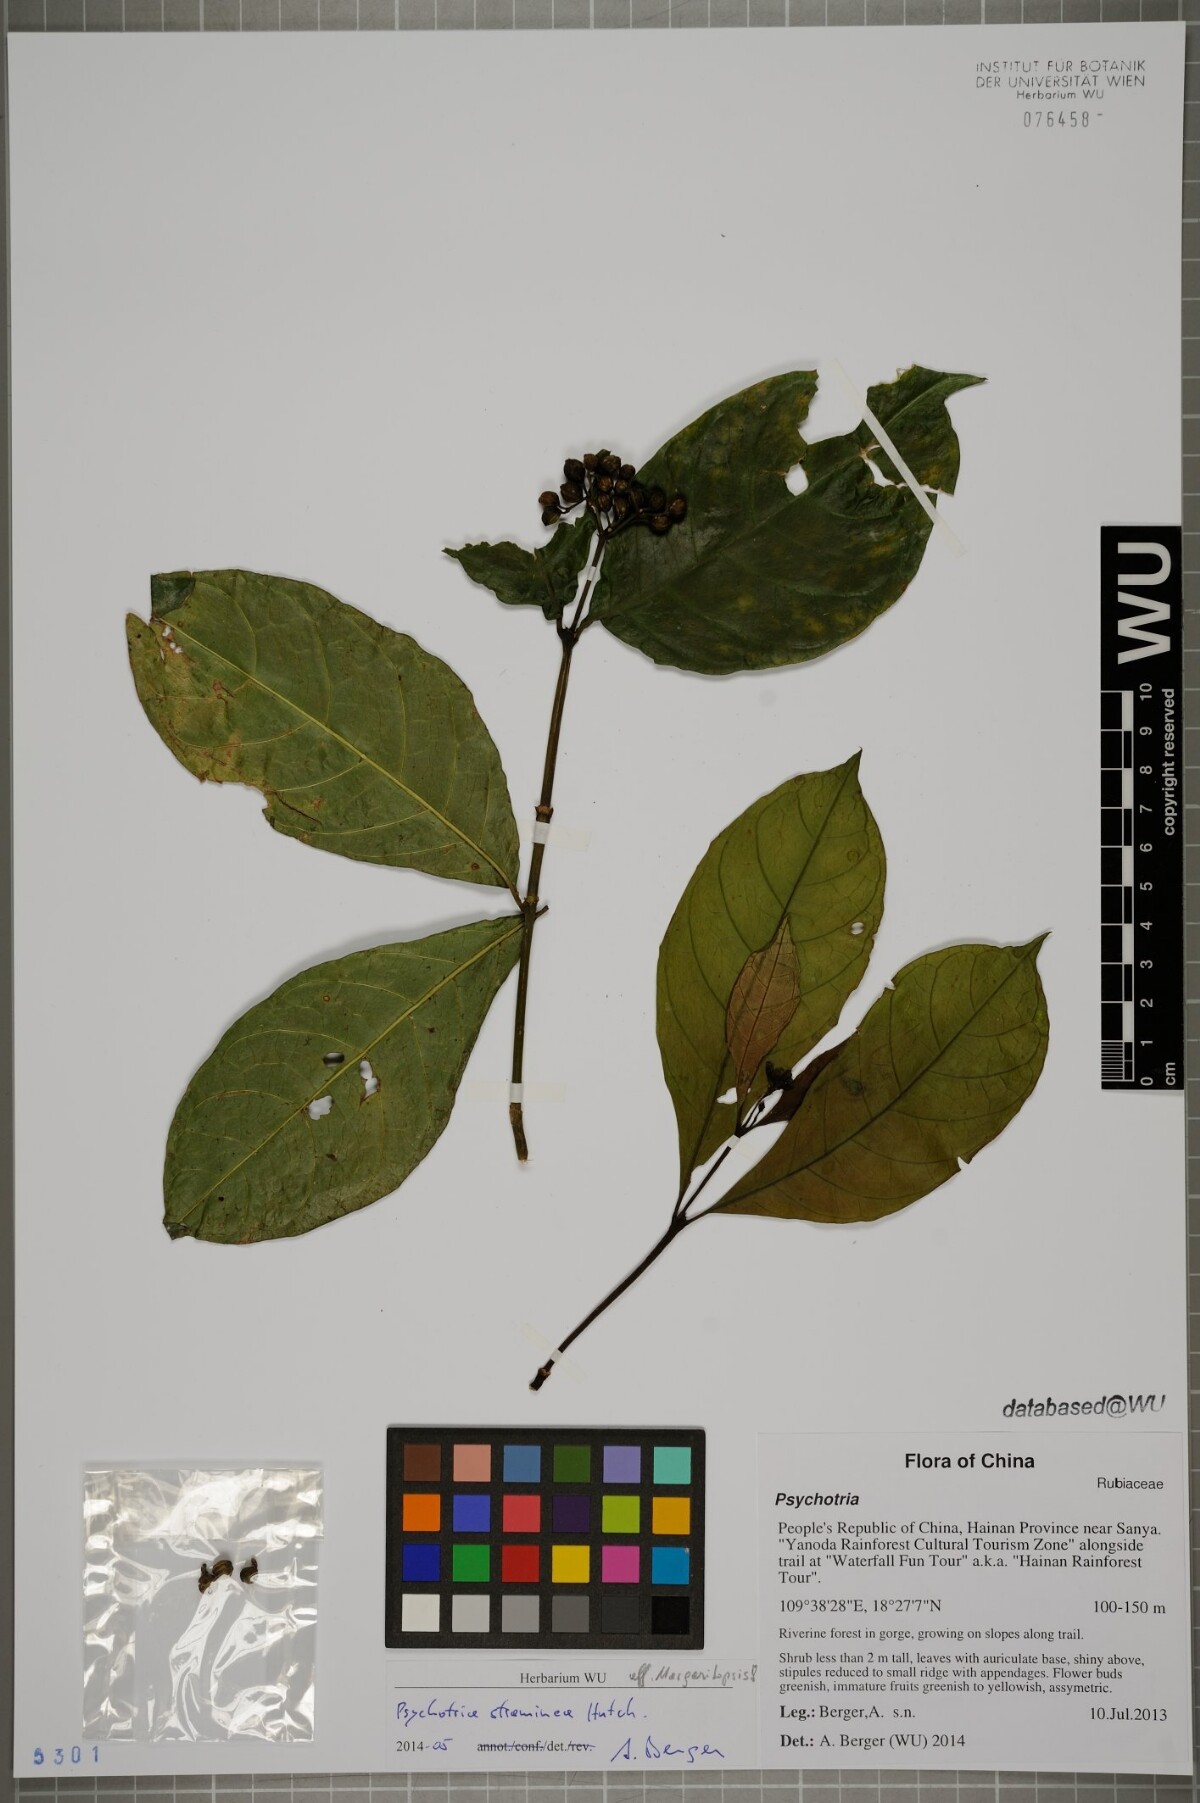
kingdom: Plantae
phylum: Tracheophyta
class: Magnoliopsida
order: Gentianales
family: Rubiaceae
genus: Eumachia
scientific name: Eumachia straminea
